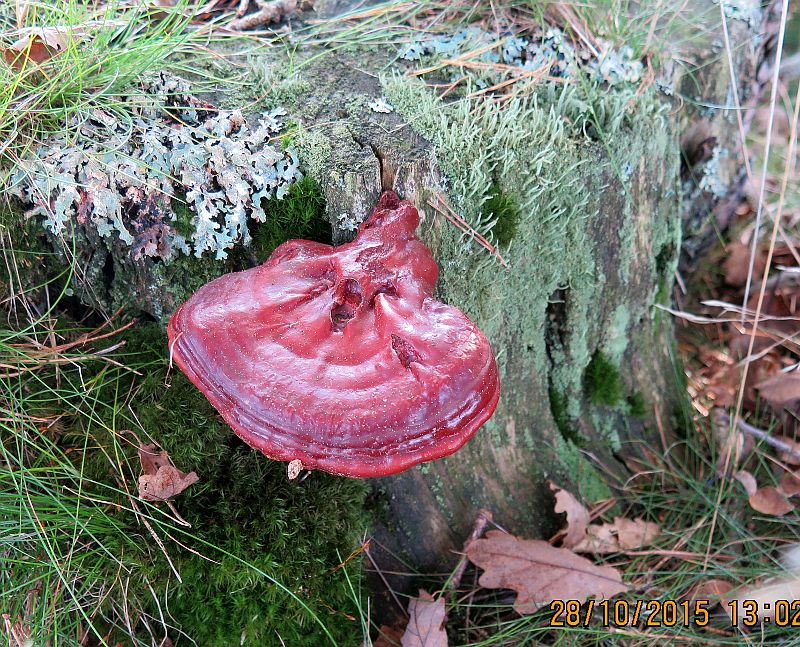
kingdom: Fungi
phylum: Basidiomycota
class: Agaricomycetes
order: Polyporales
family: Polyporaceae
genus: Ganoderma
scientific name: Ganoderma lucidum
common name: skinnende lakporesvamp
